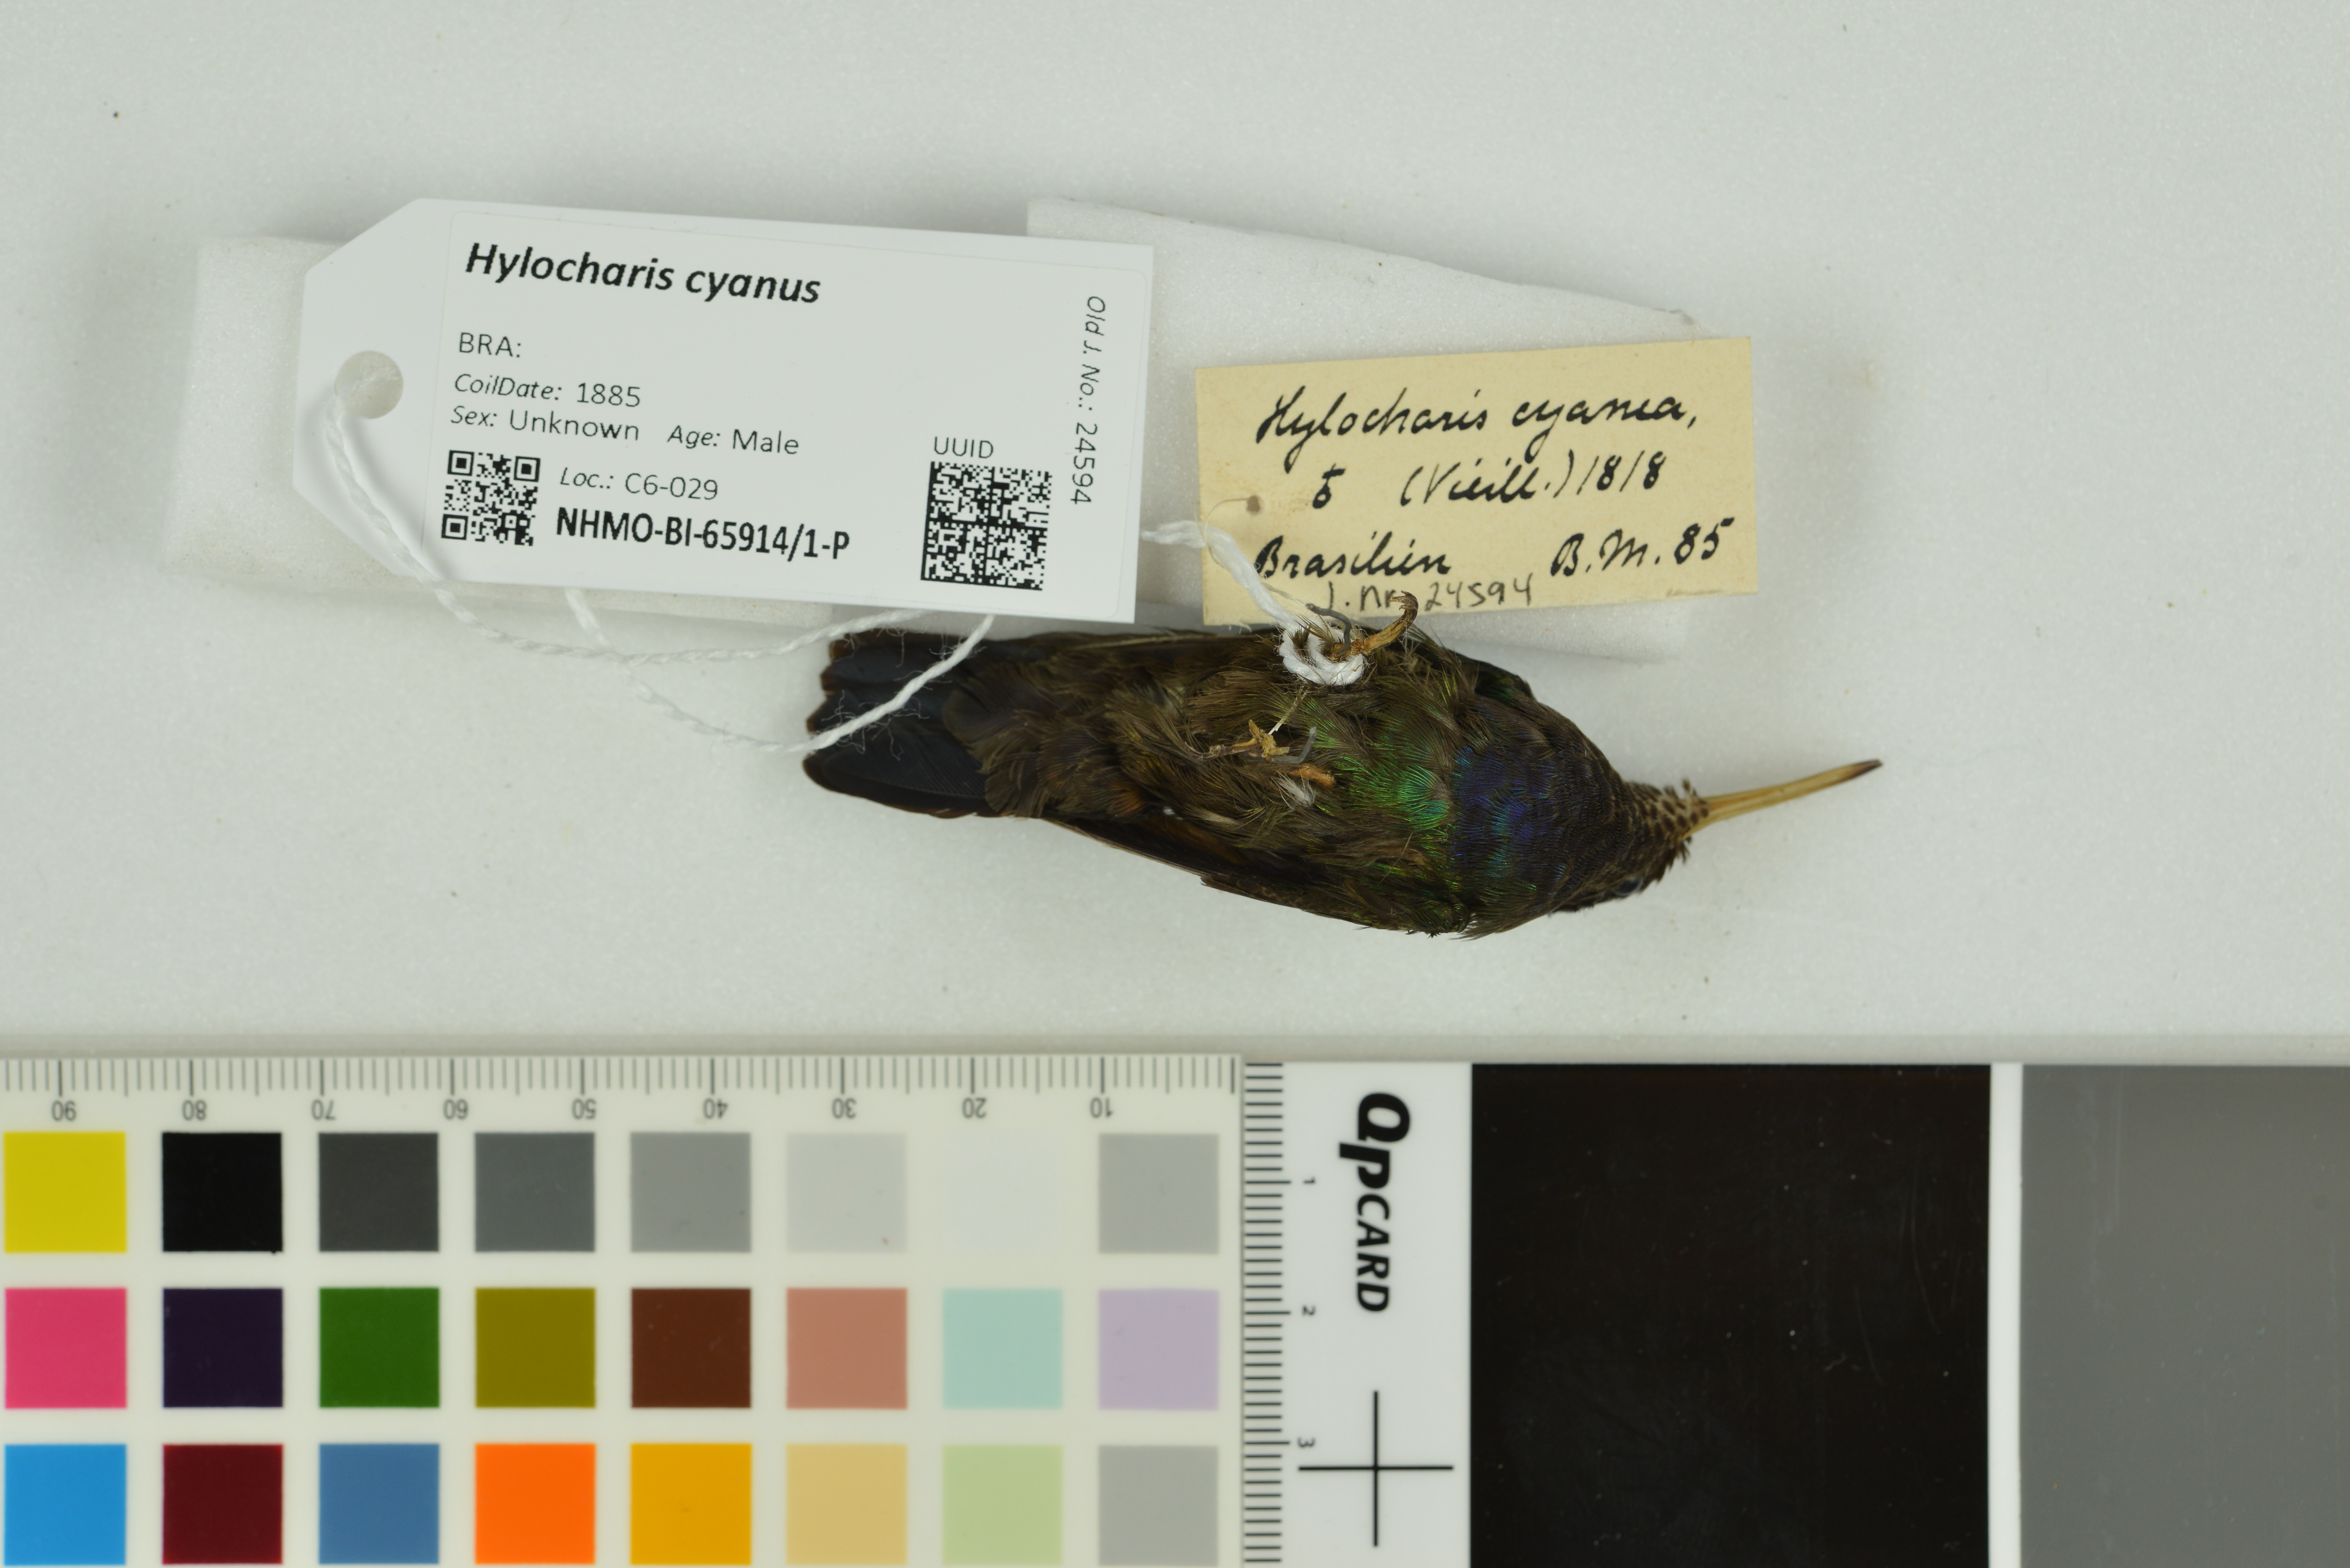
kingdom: Animalia
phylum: Chordata
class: Aves
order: Apodiformes
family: Trochilidae
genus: Chlorestes
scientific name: Chlorestes cyanus
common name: White-chinned sapphire
